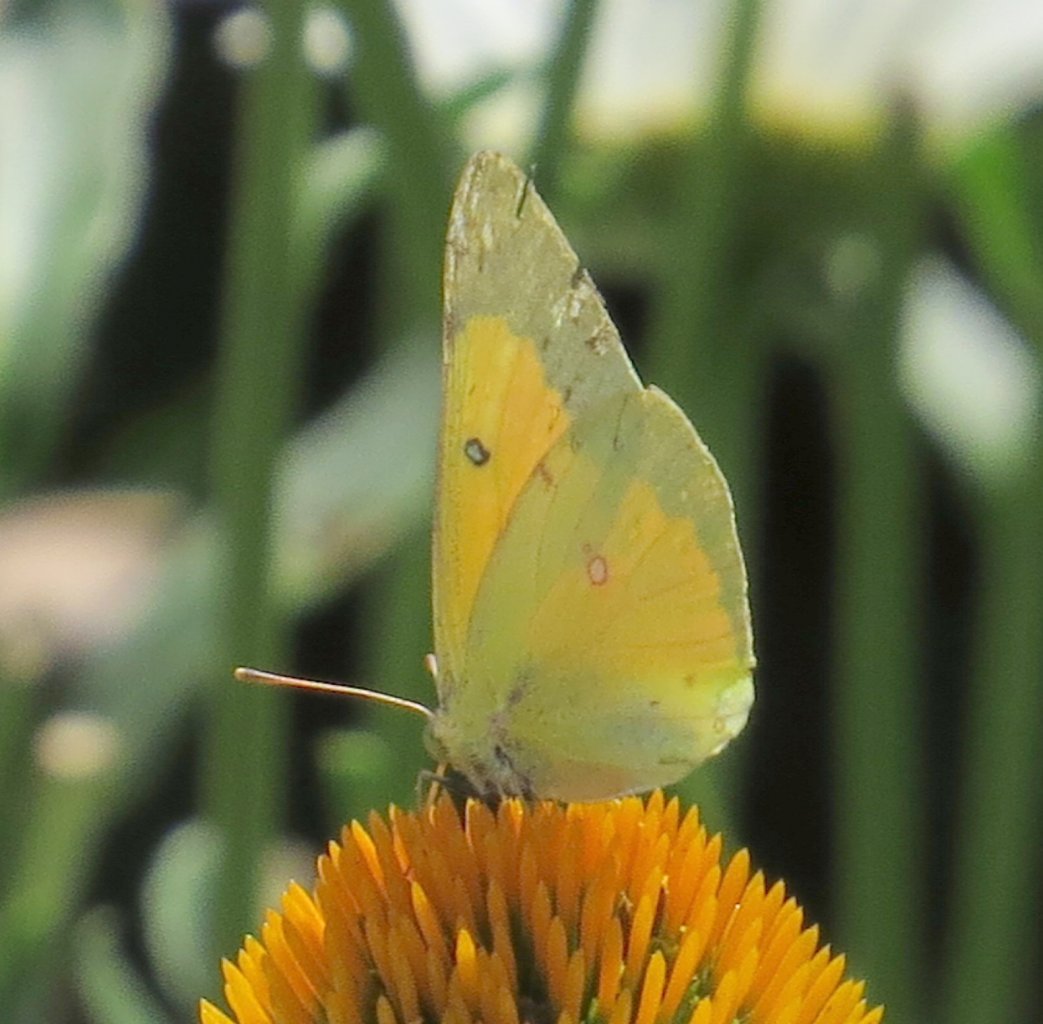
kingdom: Animalia
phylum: Arthropoda
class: Insecta
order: Lepidoptera
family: Pieridae
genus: Colias
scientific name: Colias eurytheme
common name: Orange Sulphur
